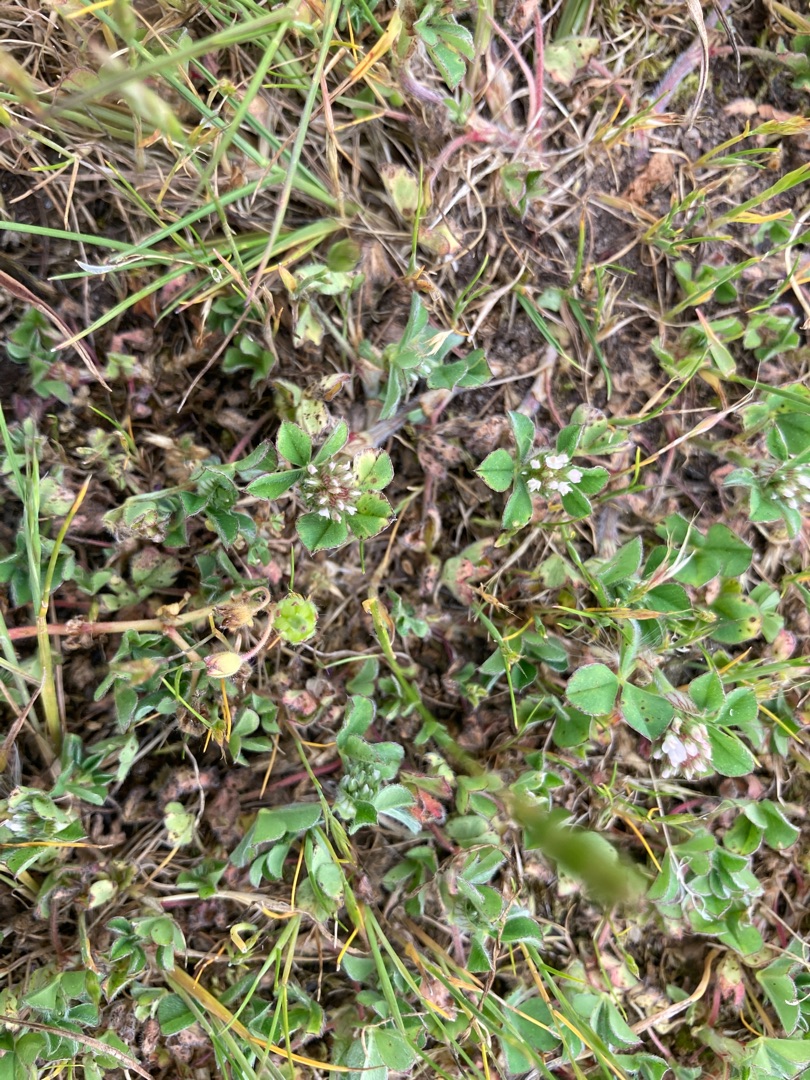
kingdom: Plantae
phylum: Tracheophyta
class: Magnoliopsida
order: Fabales
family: Fabaceae
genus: Trifolium
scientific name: Trifolium striatum
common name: Stribet kløver
